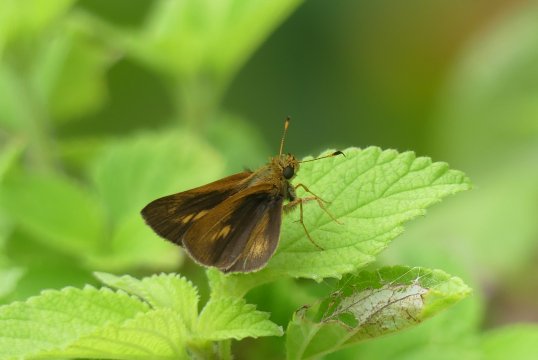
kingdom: Animalia
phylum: Arthropoda
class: Insecta
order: Lepidoptera
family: Hesperiidae
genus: Anthoptus
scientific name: Anthoptus epictetus
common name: Trailside Skipper
